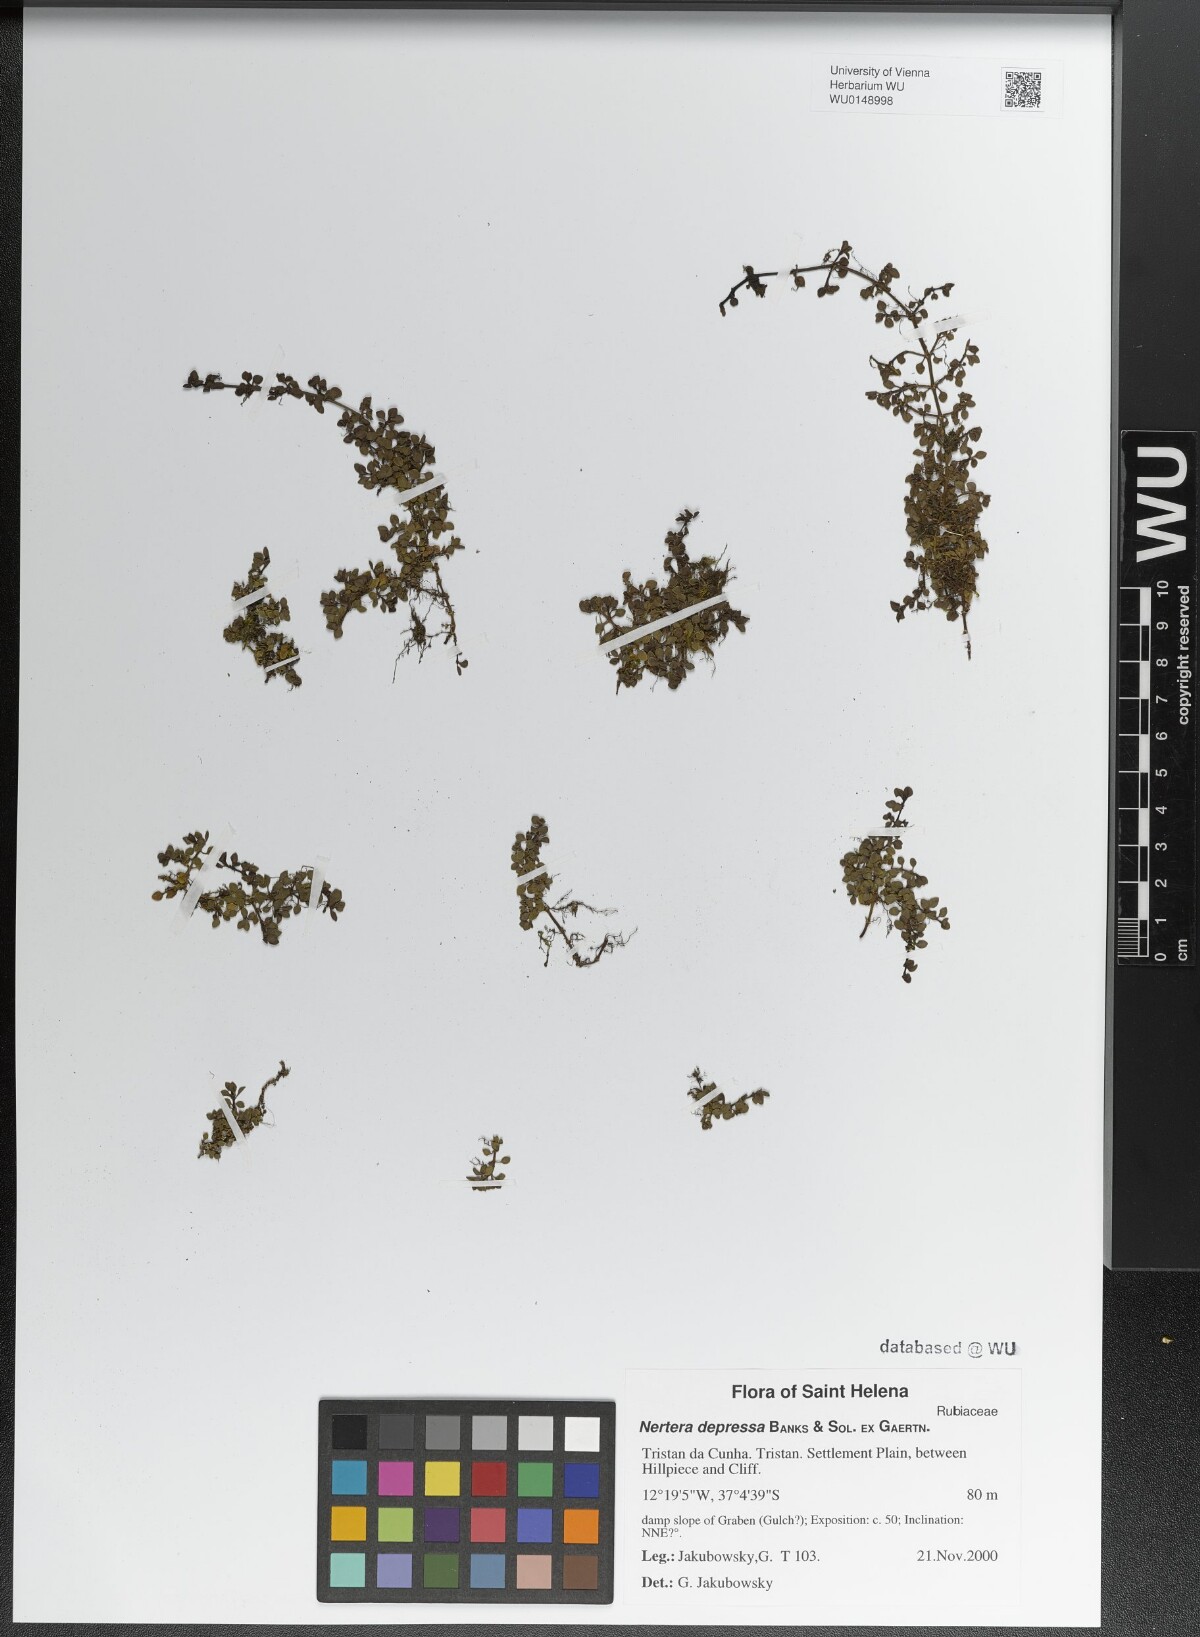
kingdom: Plantae
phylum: Tracheophyta
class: Magnoliopsida
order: Gentianales
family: Rubiaceae
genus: Nertera
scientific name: Nertera granadensis
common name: Beadplant
